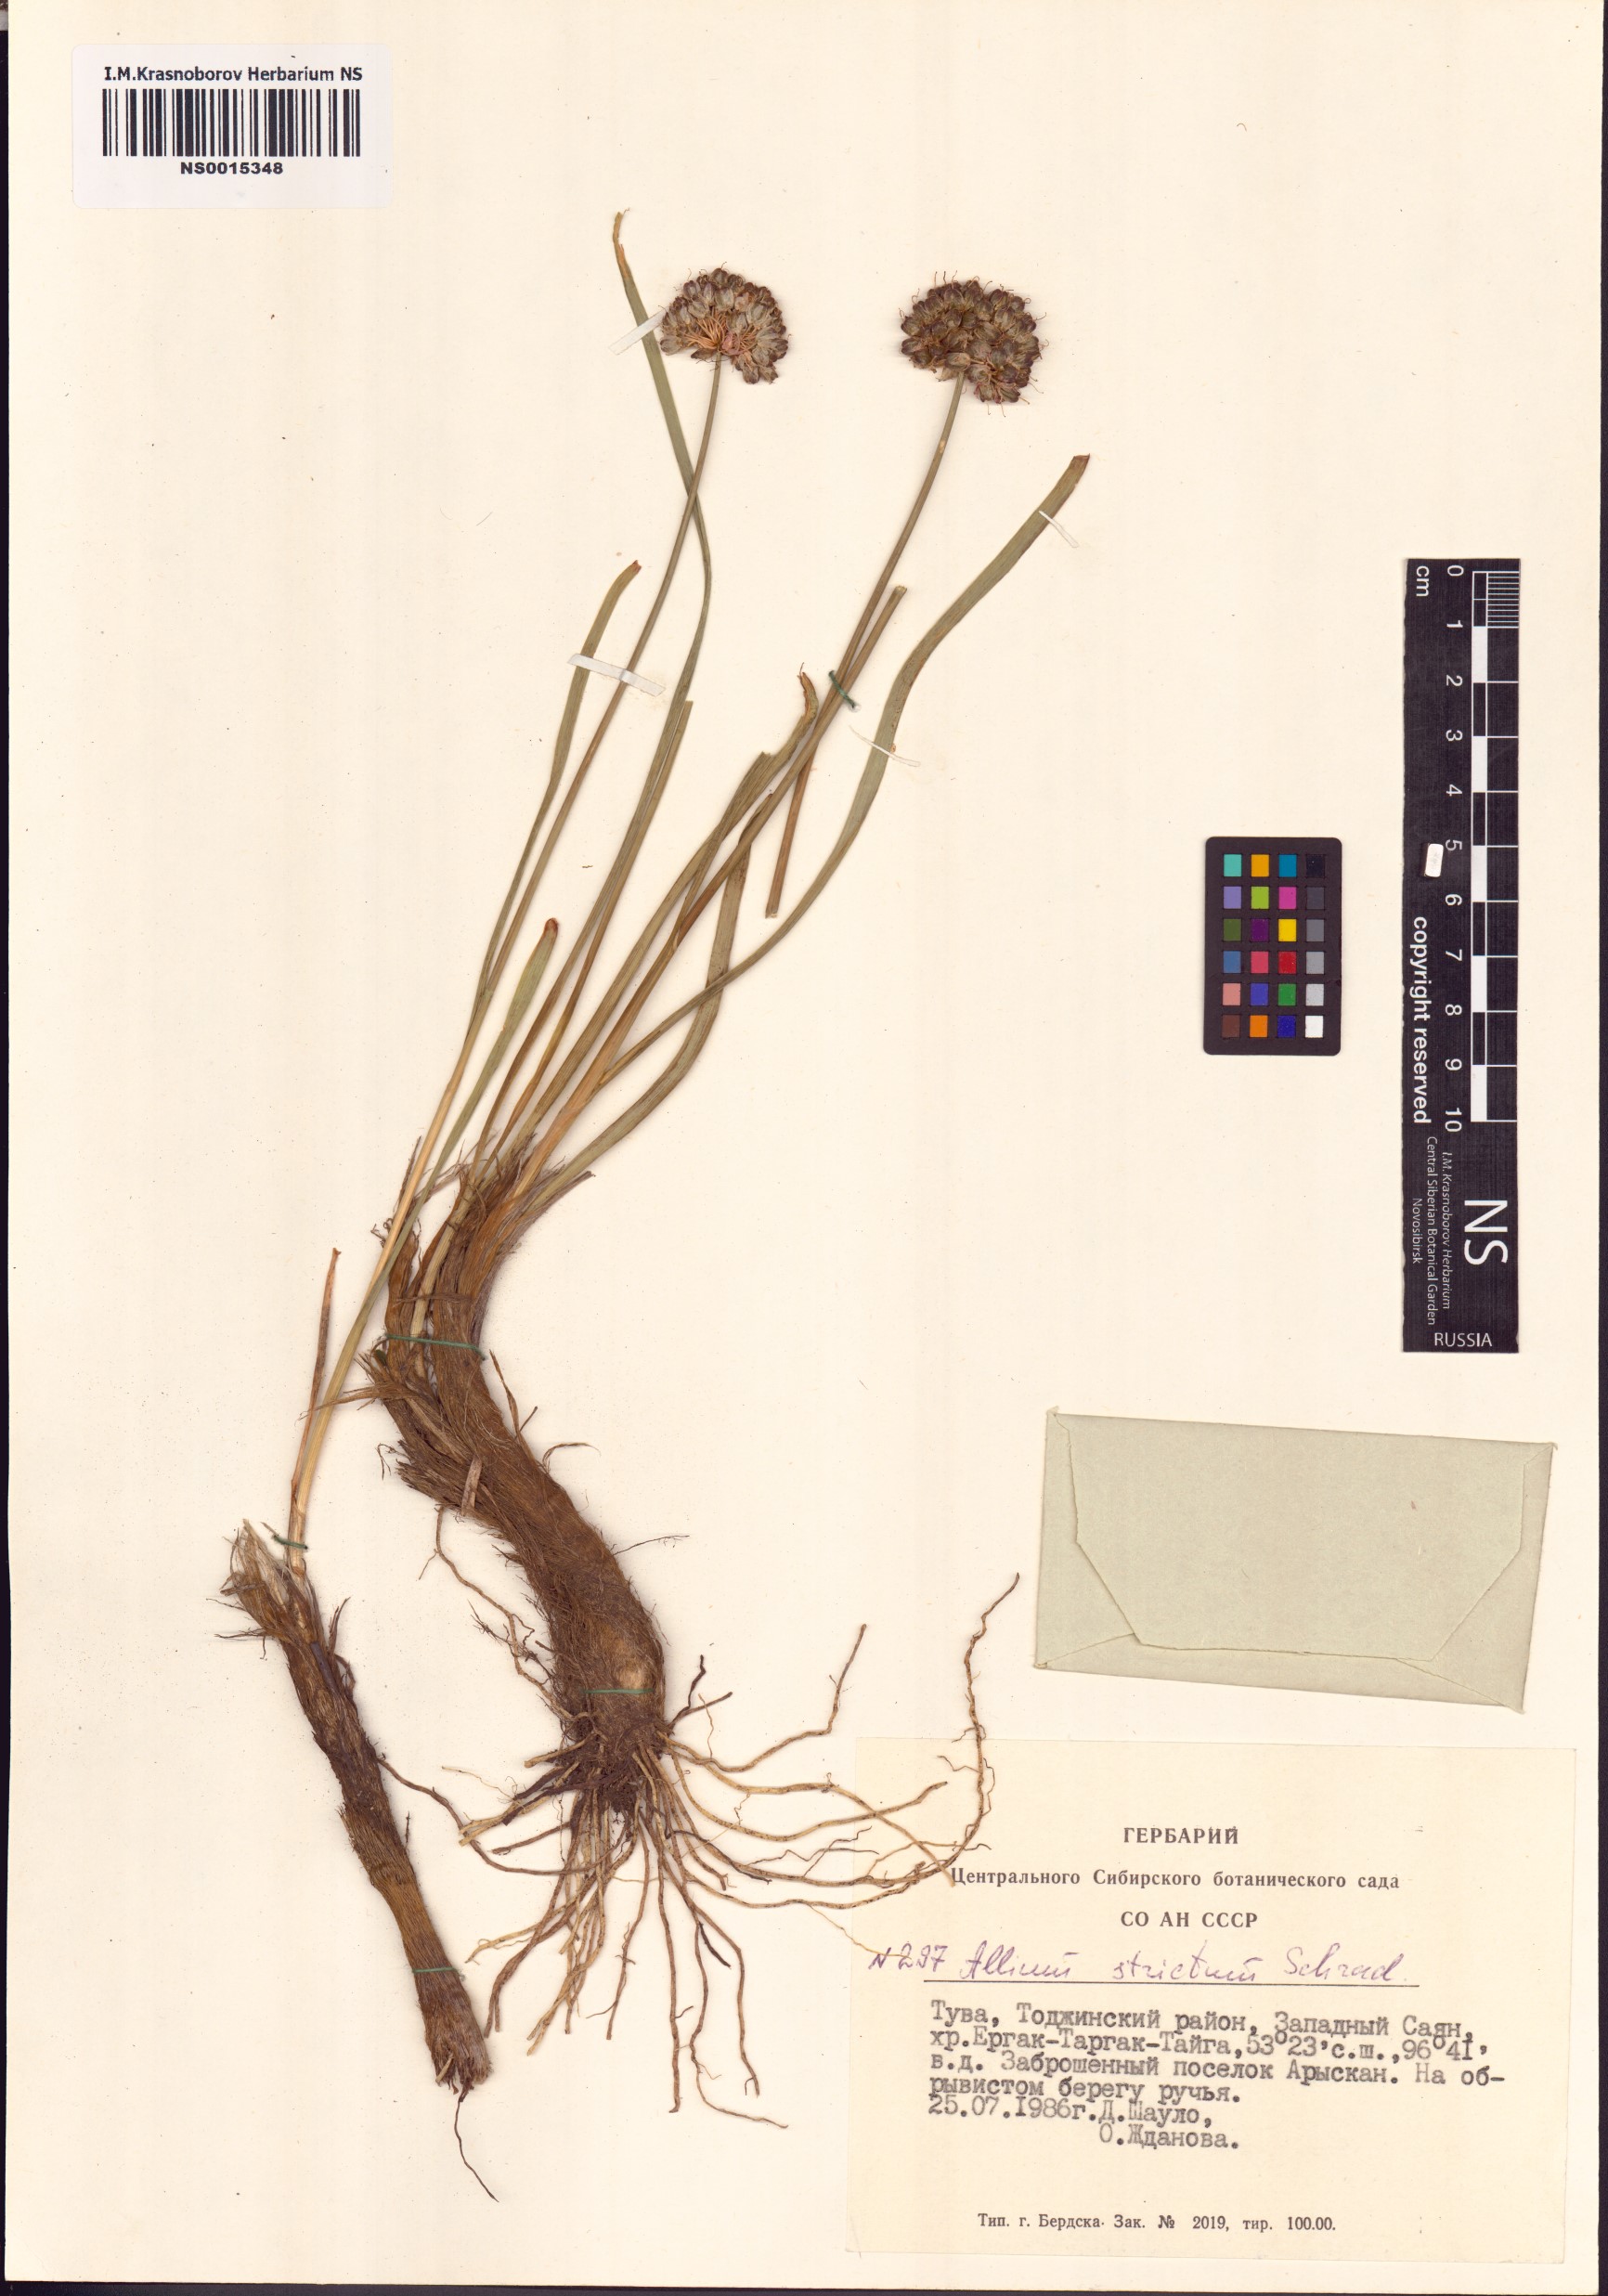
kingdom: Plantae
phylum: Tracheophyta
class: Liliopsida
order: Asparagales
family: Amaryllidaceae
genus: Allium
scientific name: Allium strictum
